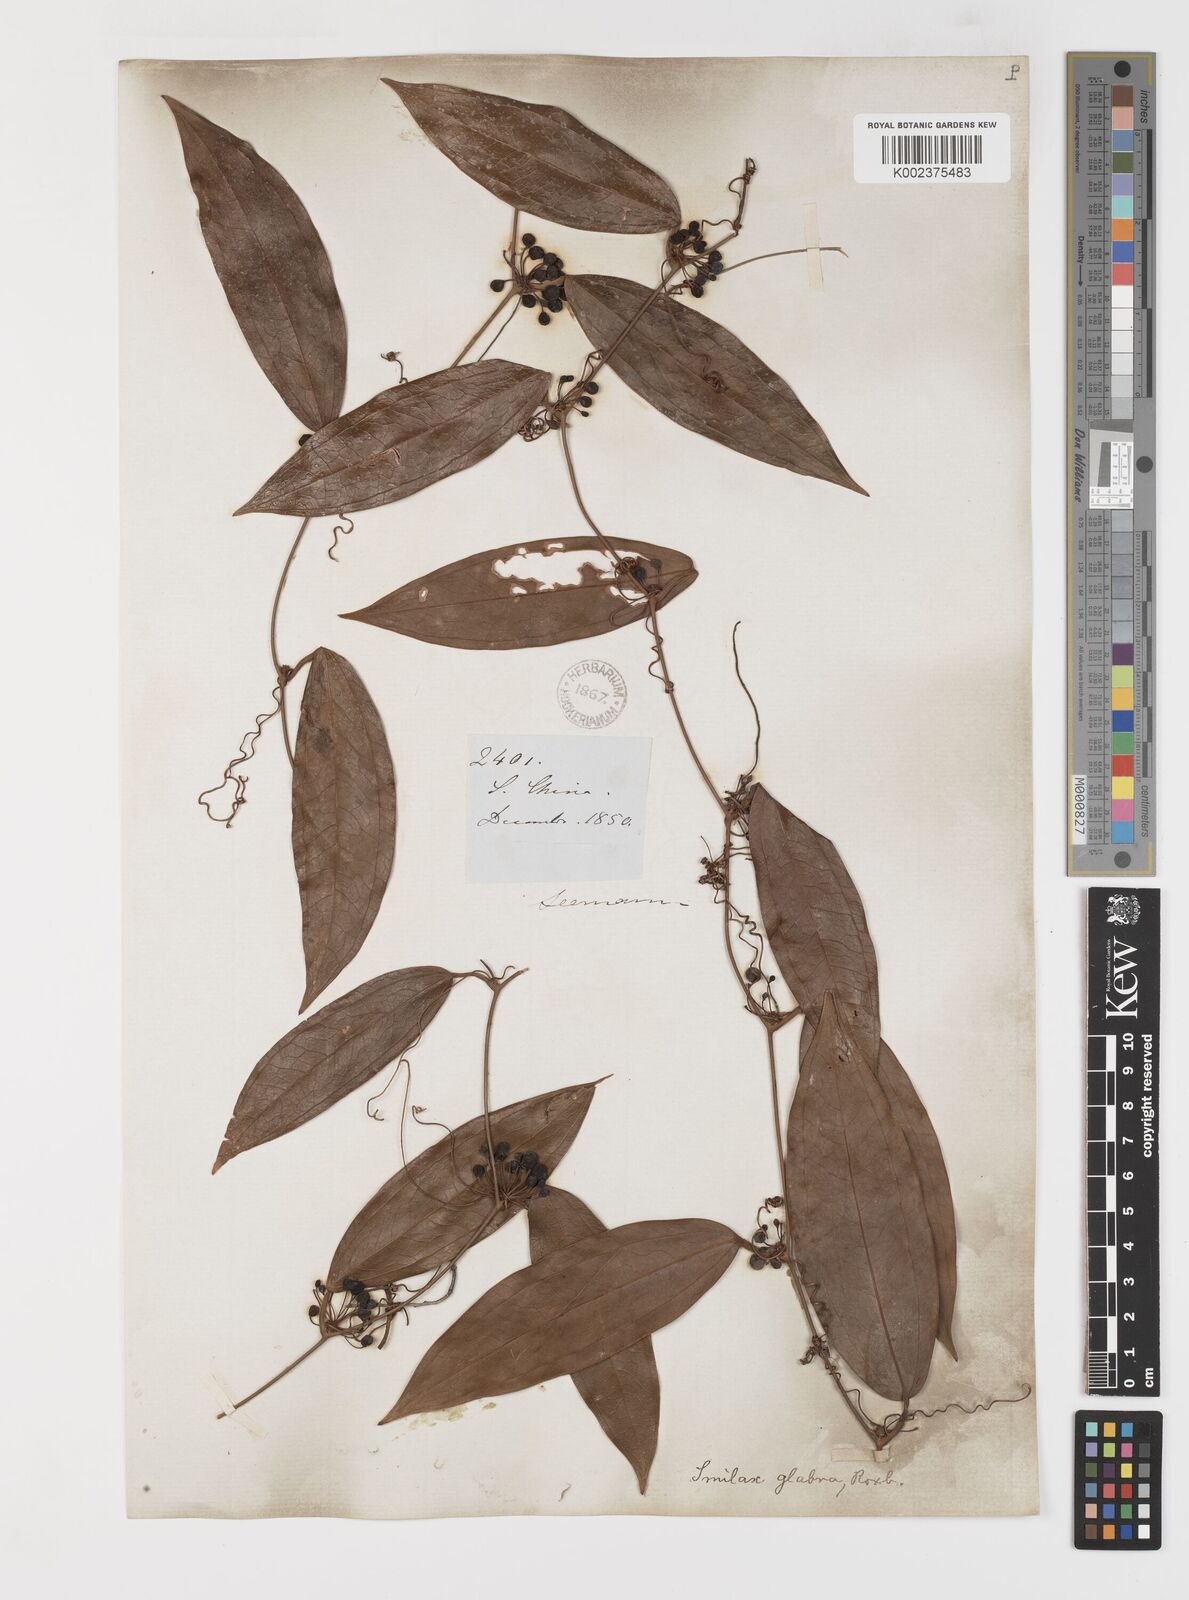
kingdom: Plantae
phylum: Tracheophyta
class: Liliopsida
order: Liliales
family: Smilacaceae
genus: Smilax
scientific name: Smilax glabra
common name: Chinese smilax
